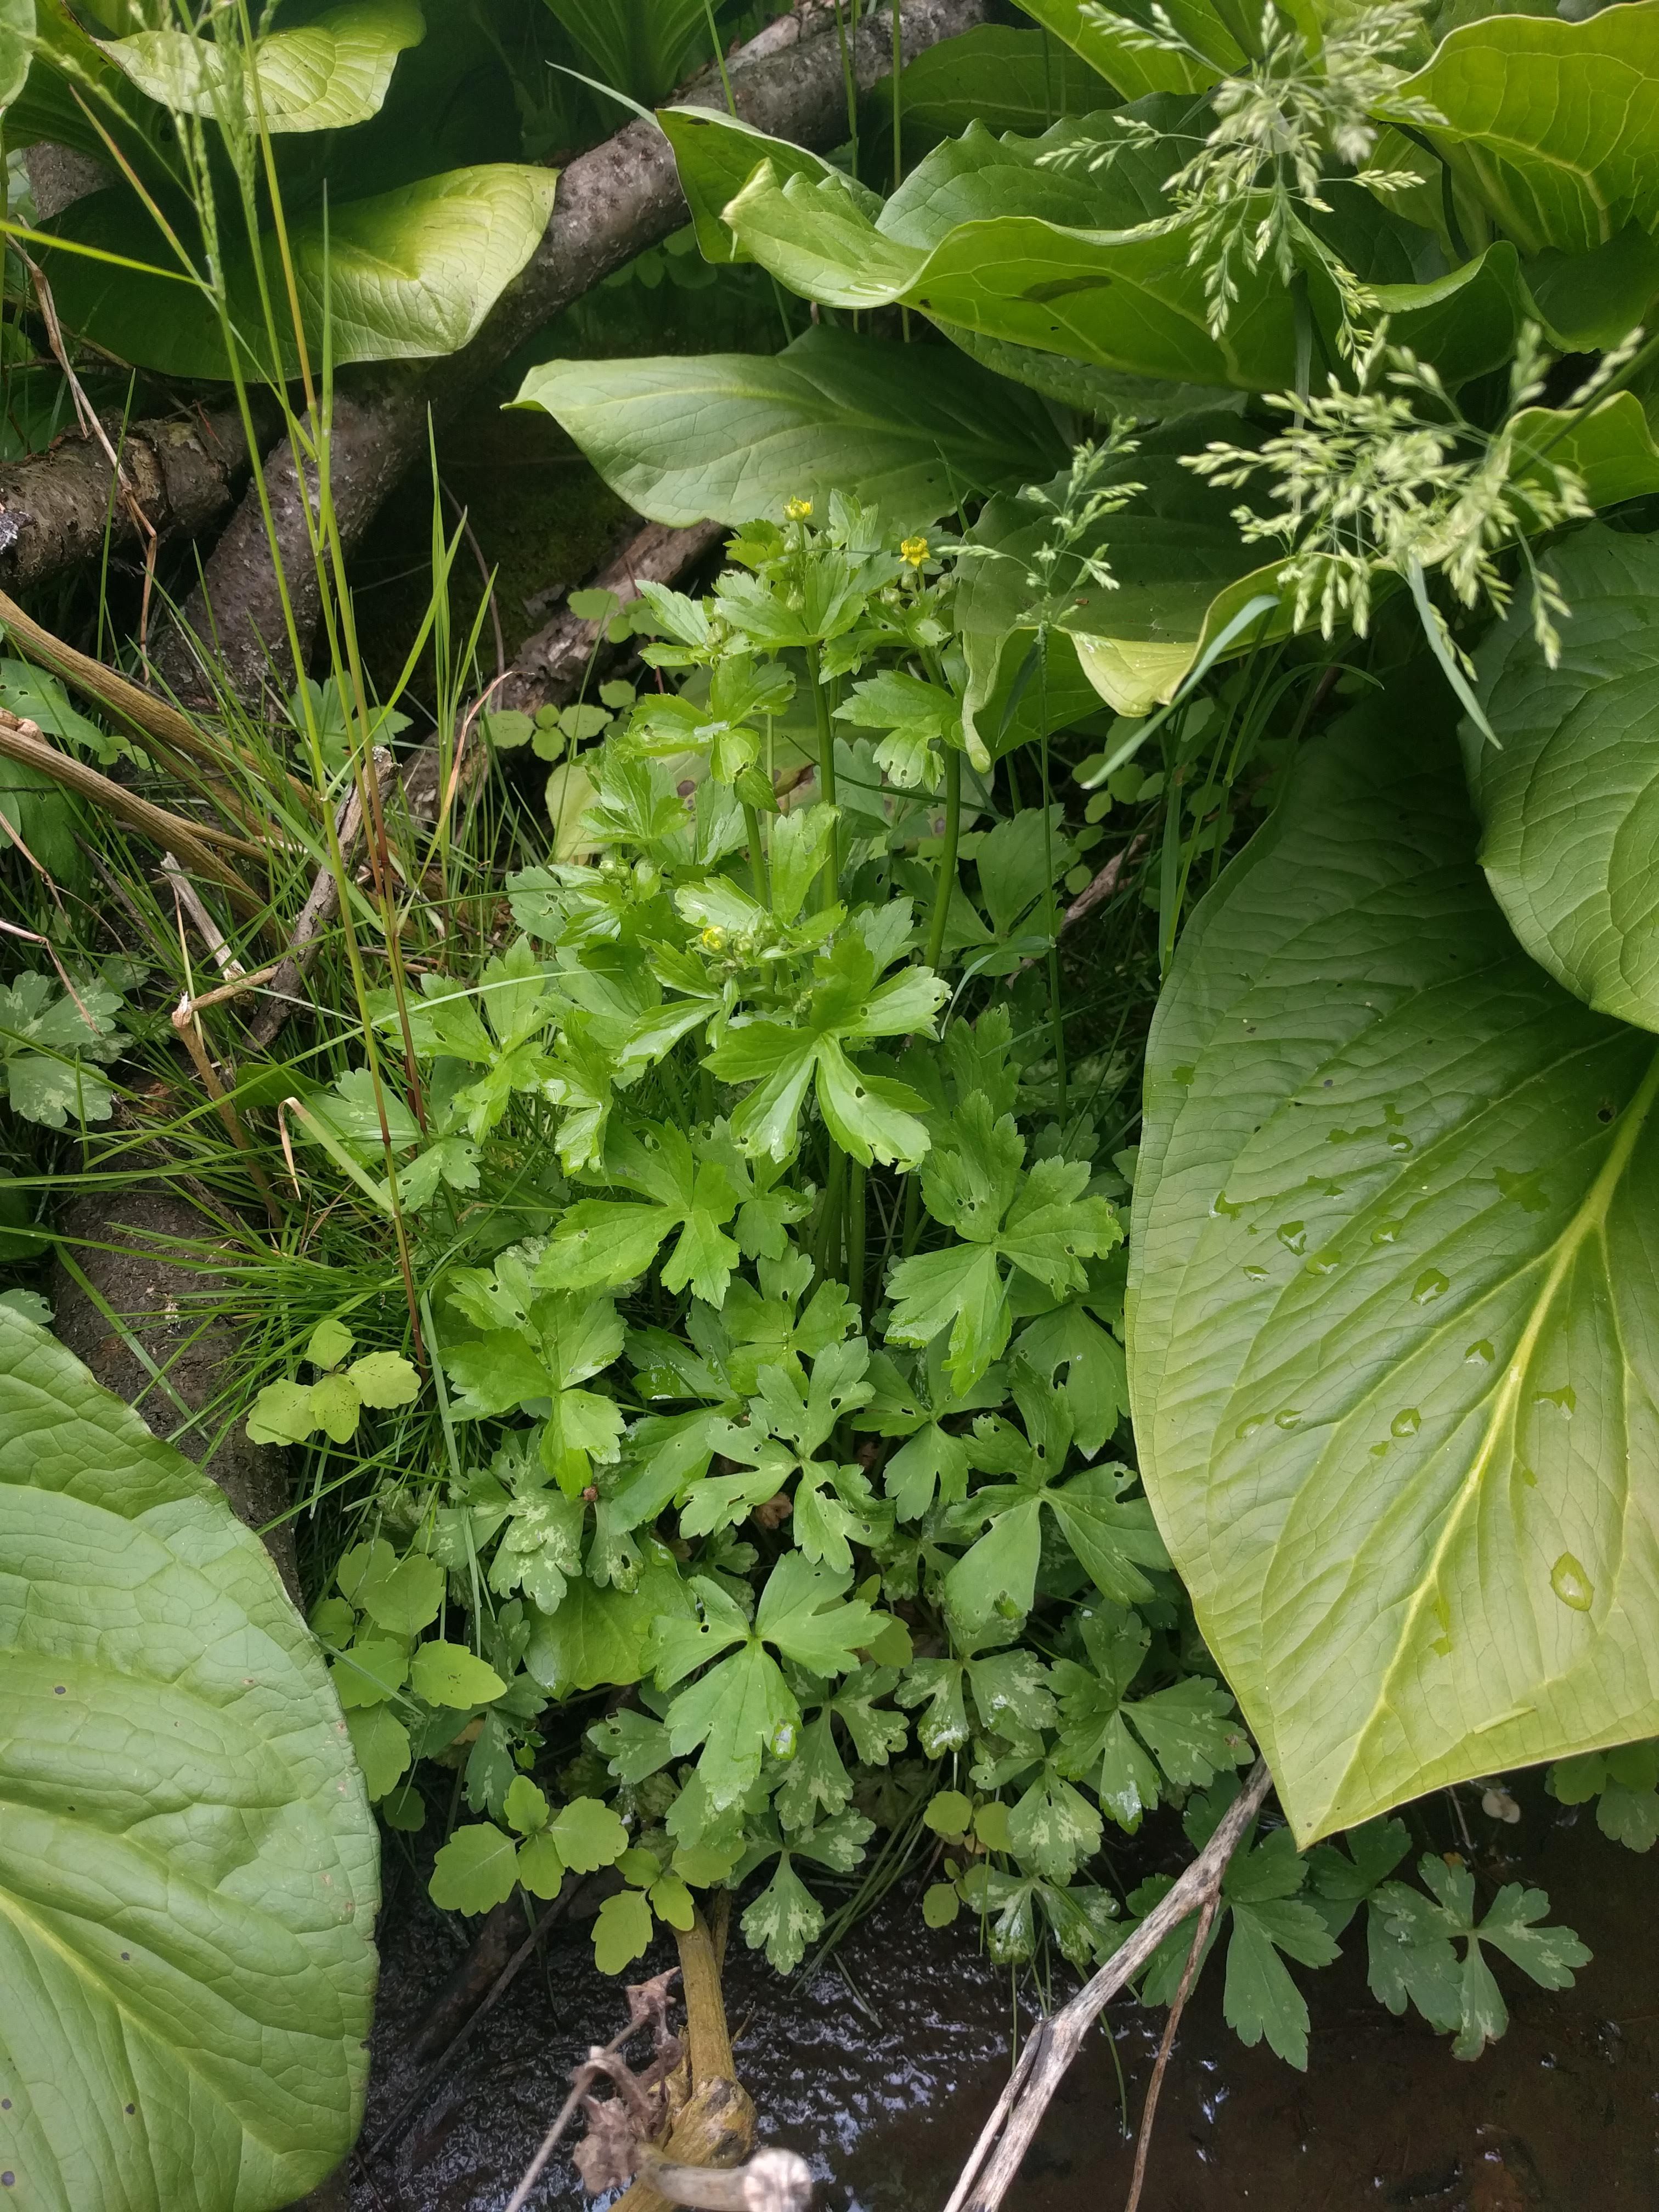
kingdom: Plantae
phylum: Tracheophyta
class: Magnoliopsida
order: Ranunculales
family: Ranunculaceae
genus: Ranunculus
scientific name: Ranunculus recurvatus
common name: Blisterwort
